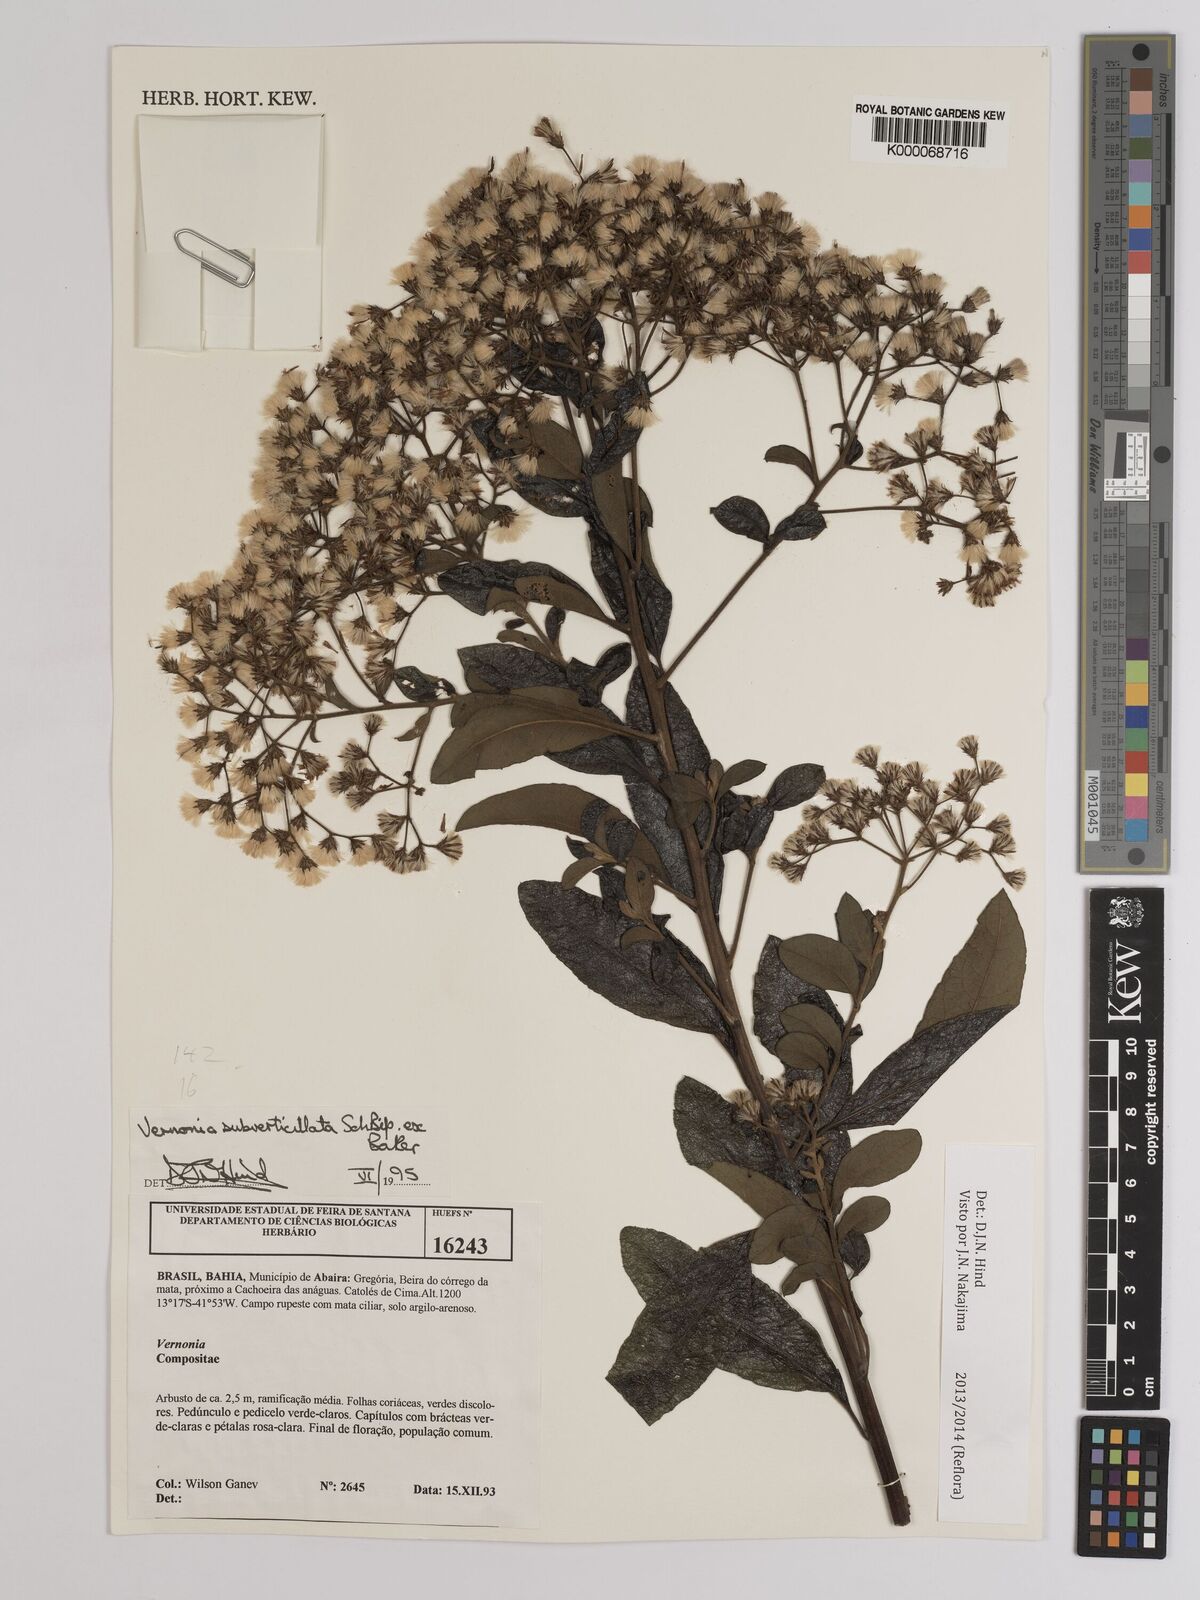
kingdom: Plantae
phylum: Tracheophyta
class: Magnoliopsida
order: Asterales
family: Asteraceae
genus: Vernonia
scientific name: Vernonia
